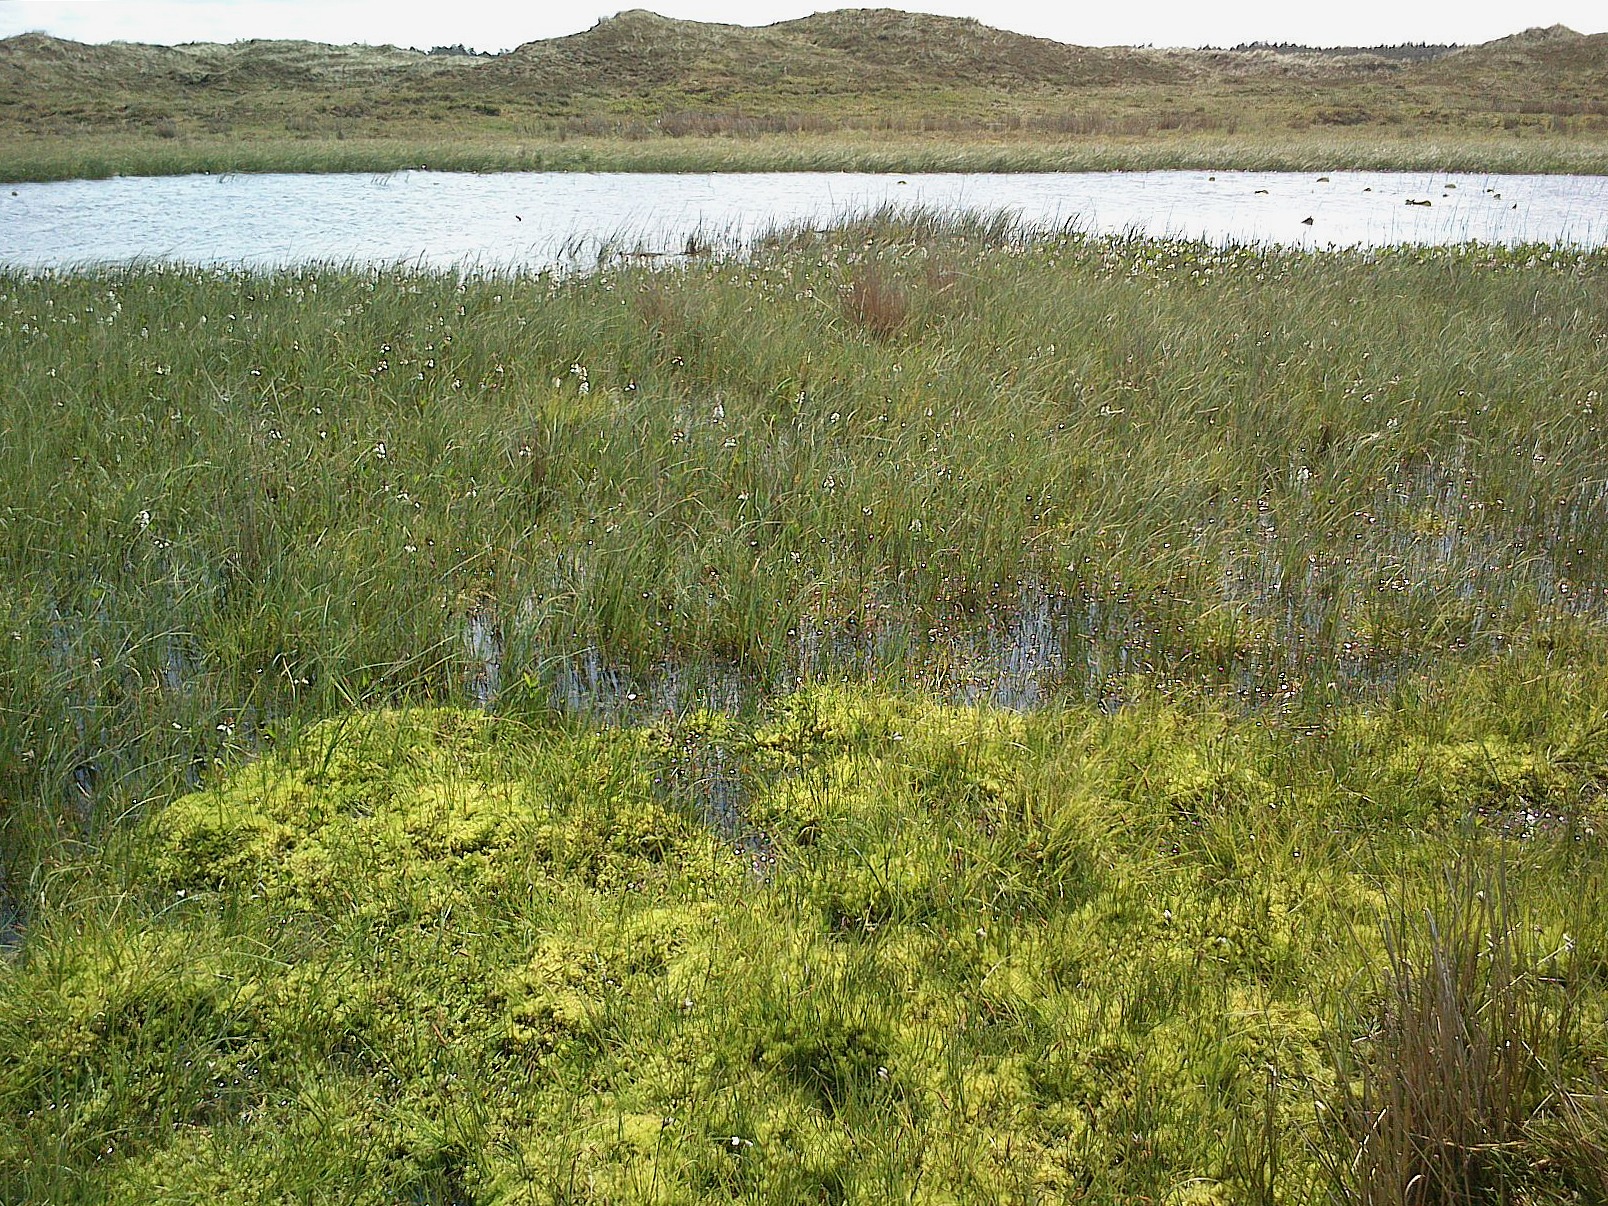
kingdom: Plantae
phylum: Bryophyta
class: Bryopsida
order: Bryales
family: Mniaceae
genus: Pseudobryum
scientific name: Pseudobryum cinclidioides
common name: Sortstænglet sumpmos
